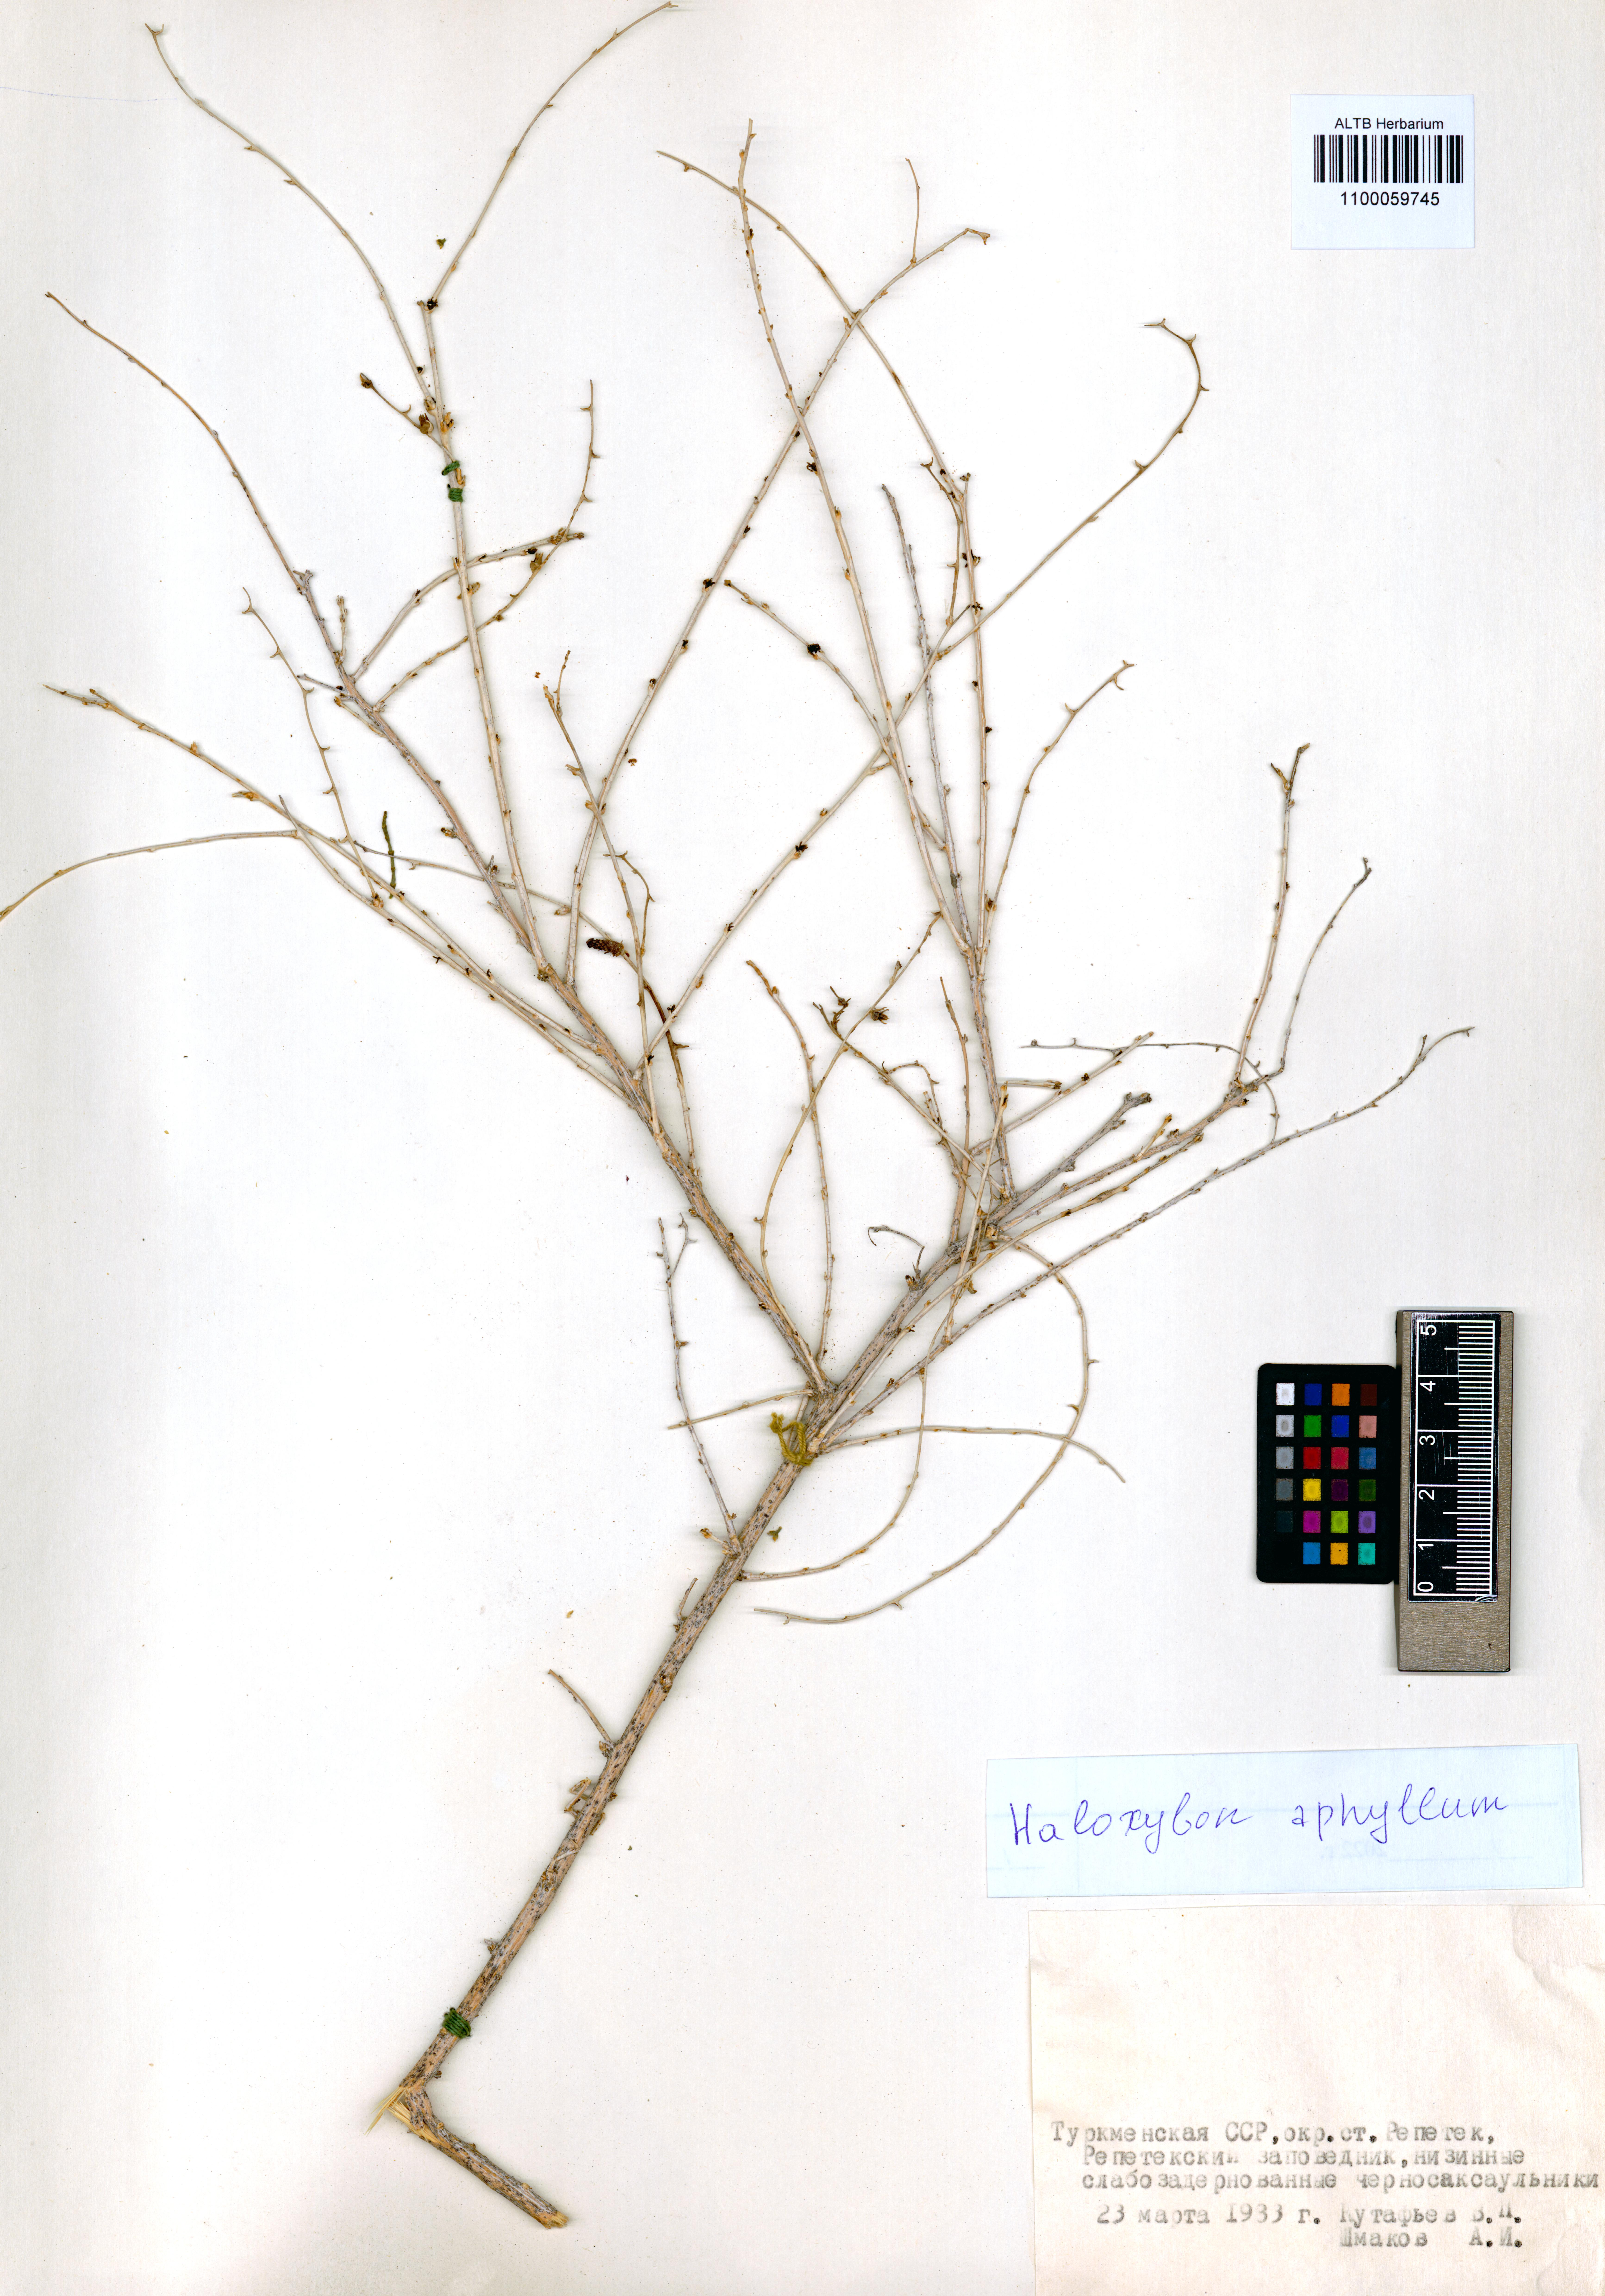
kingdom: Plantae
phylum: Tracheophyta
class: Magnoliopsida
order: Caryophyllales
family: Amaranthaceae
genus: Haloxylon
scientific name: Haloxylon ammodendron
